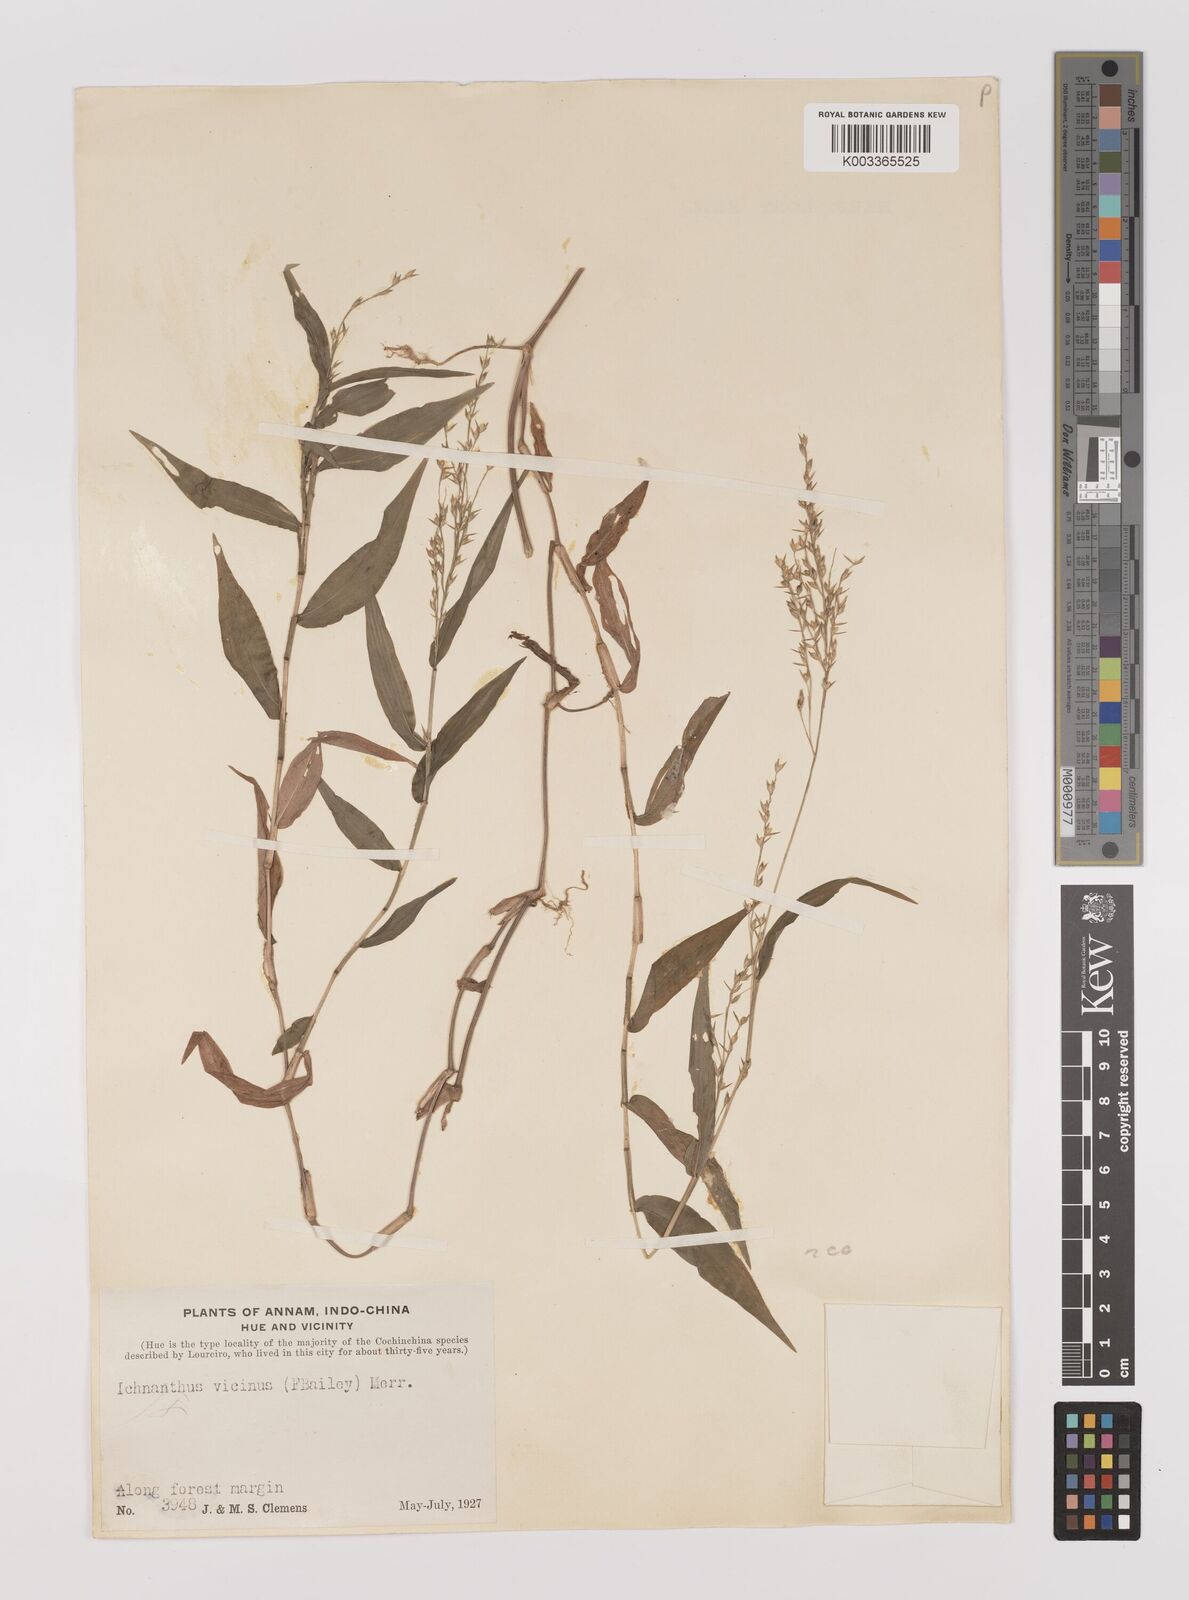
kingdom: Plantae
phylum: Tracheophyta
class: Liliopsida
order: Poales
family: Poaceae
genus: Ichnanthus
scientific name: Ichnanthus pallens
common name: Water grass
